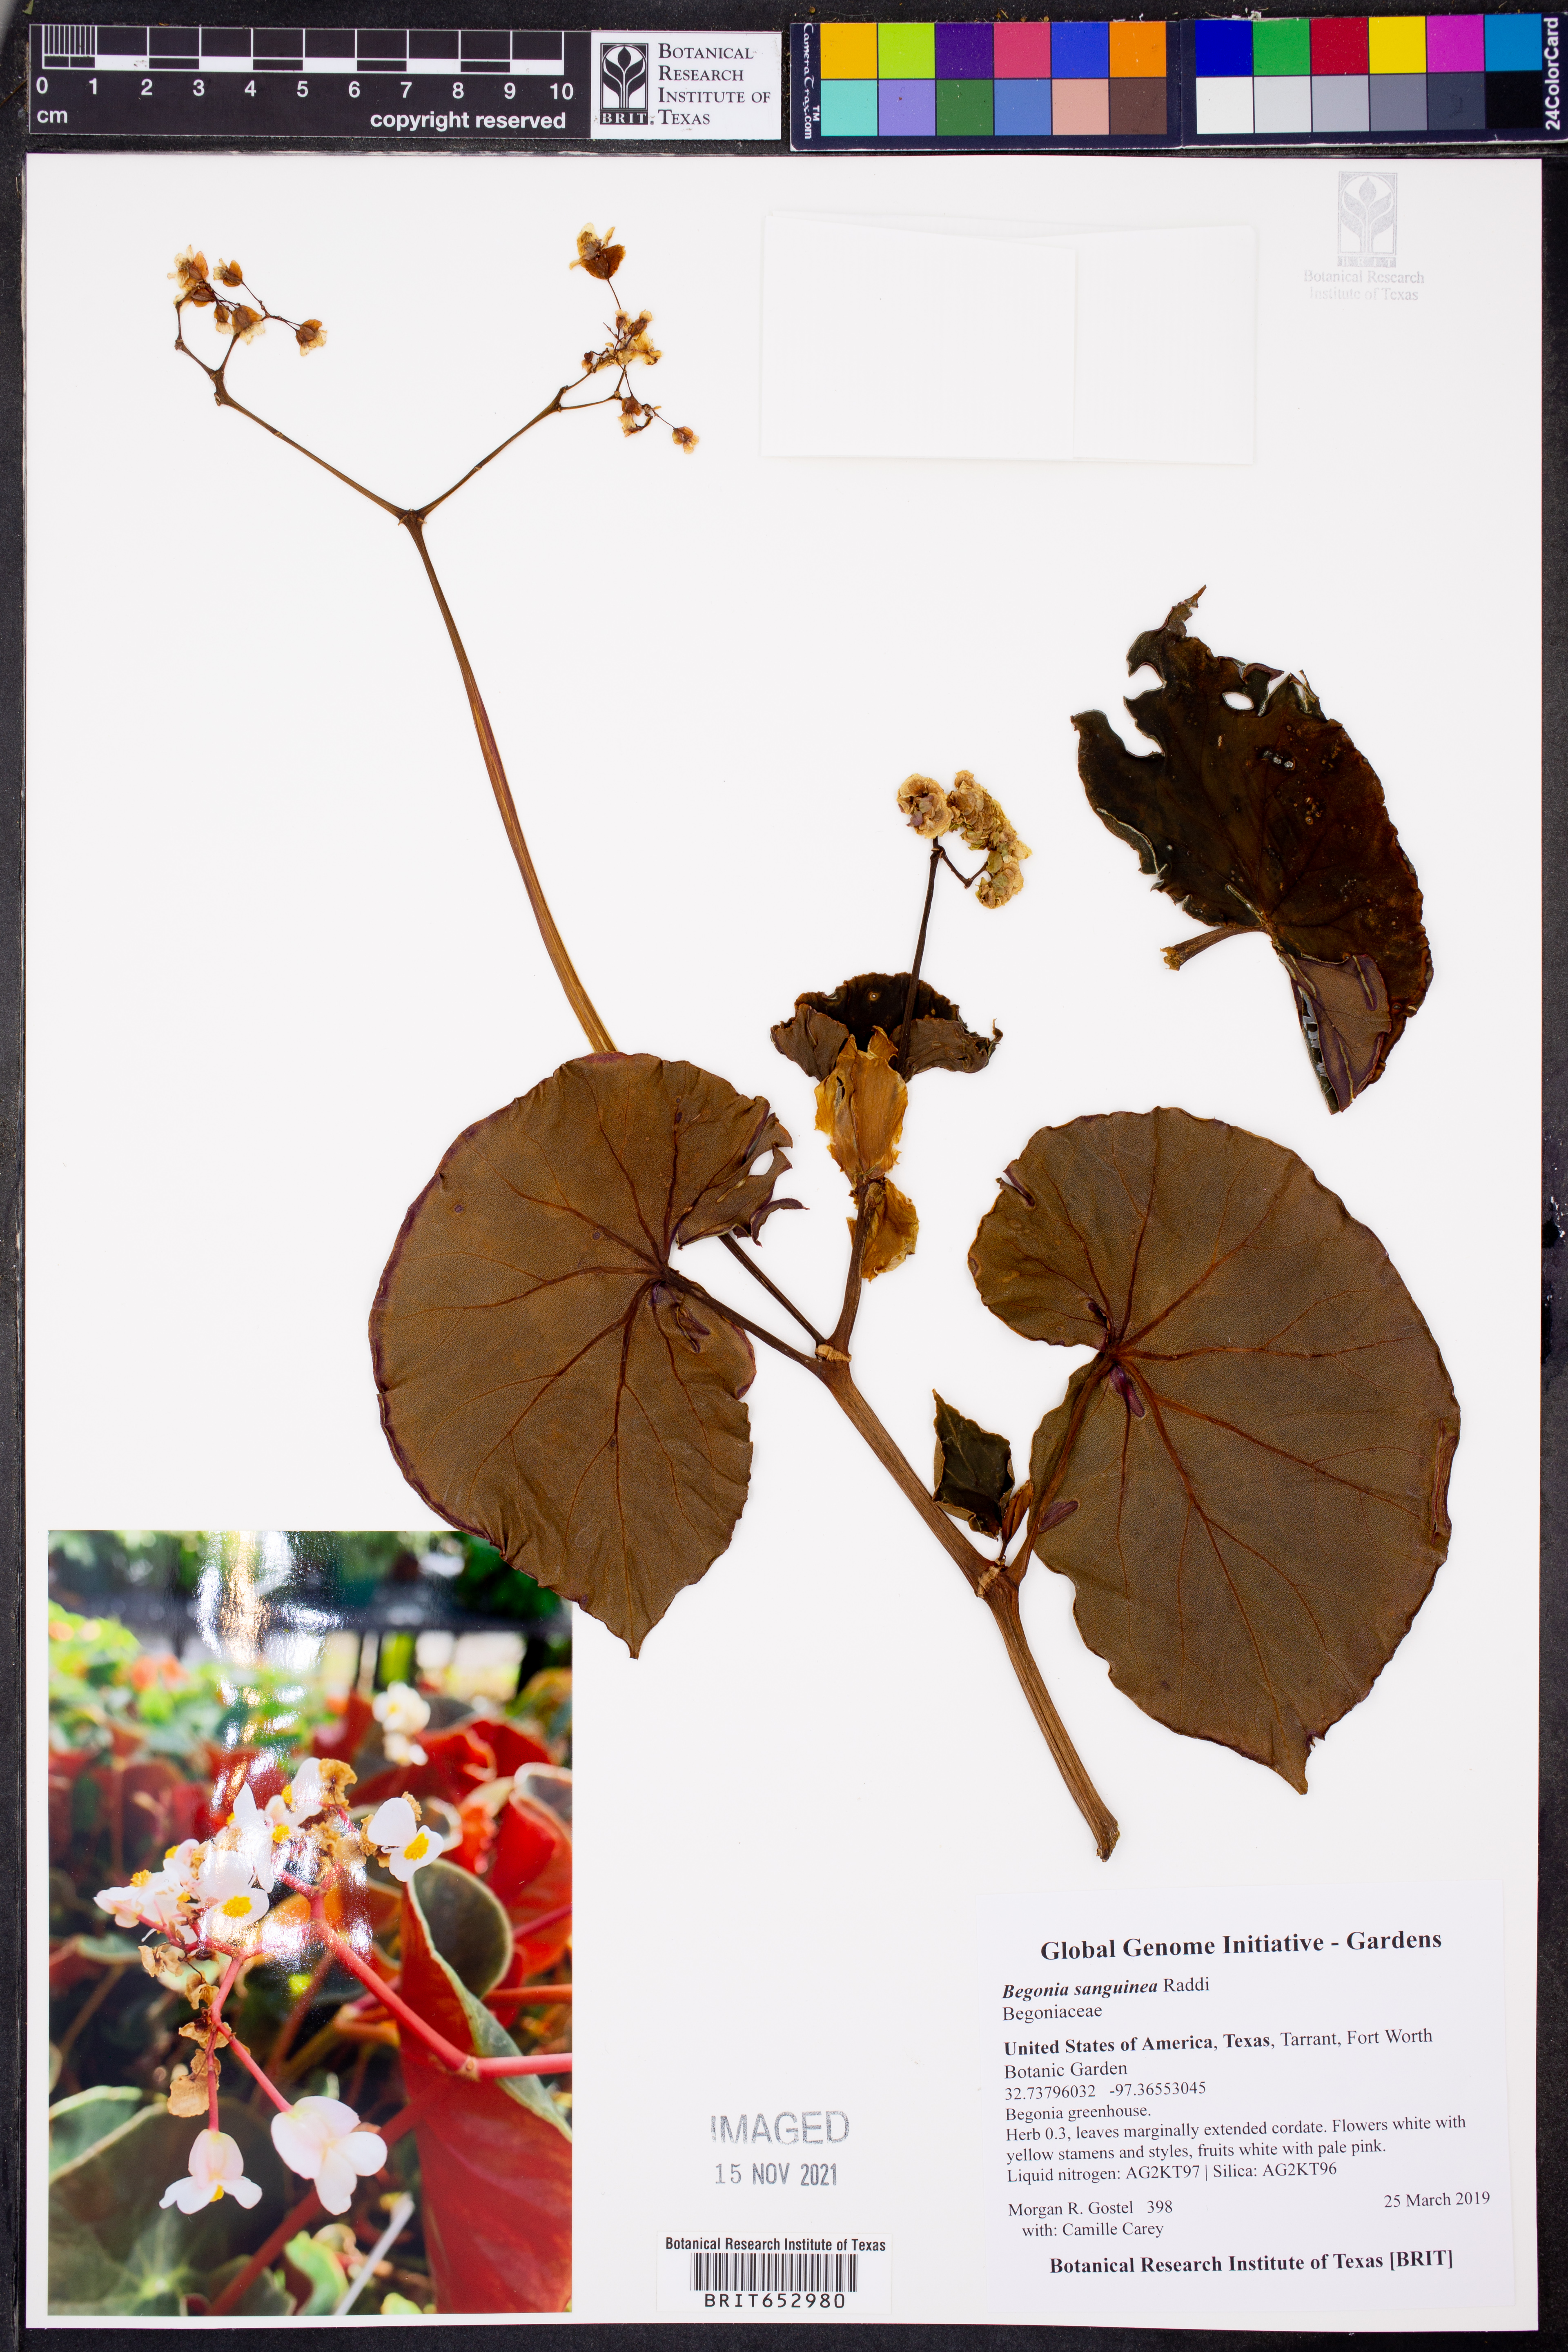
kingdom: Plantae
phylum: Tracheophyta
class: Magnoliopsida
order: Cucurbitales
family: Begoniaceae
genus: Begonia
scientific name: Begonia sanguinea
